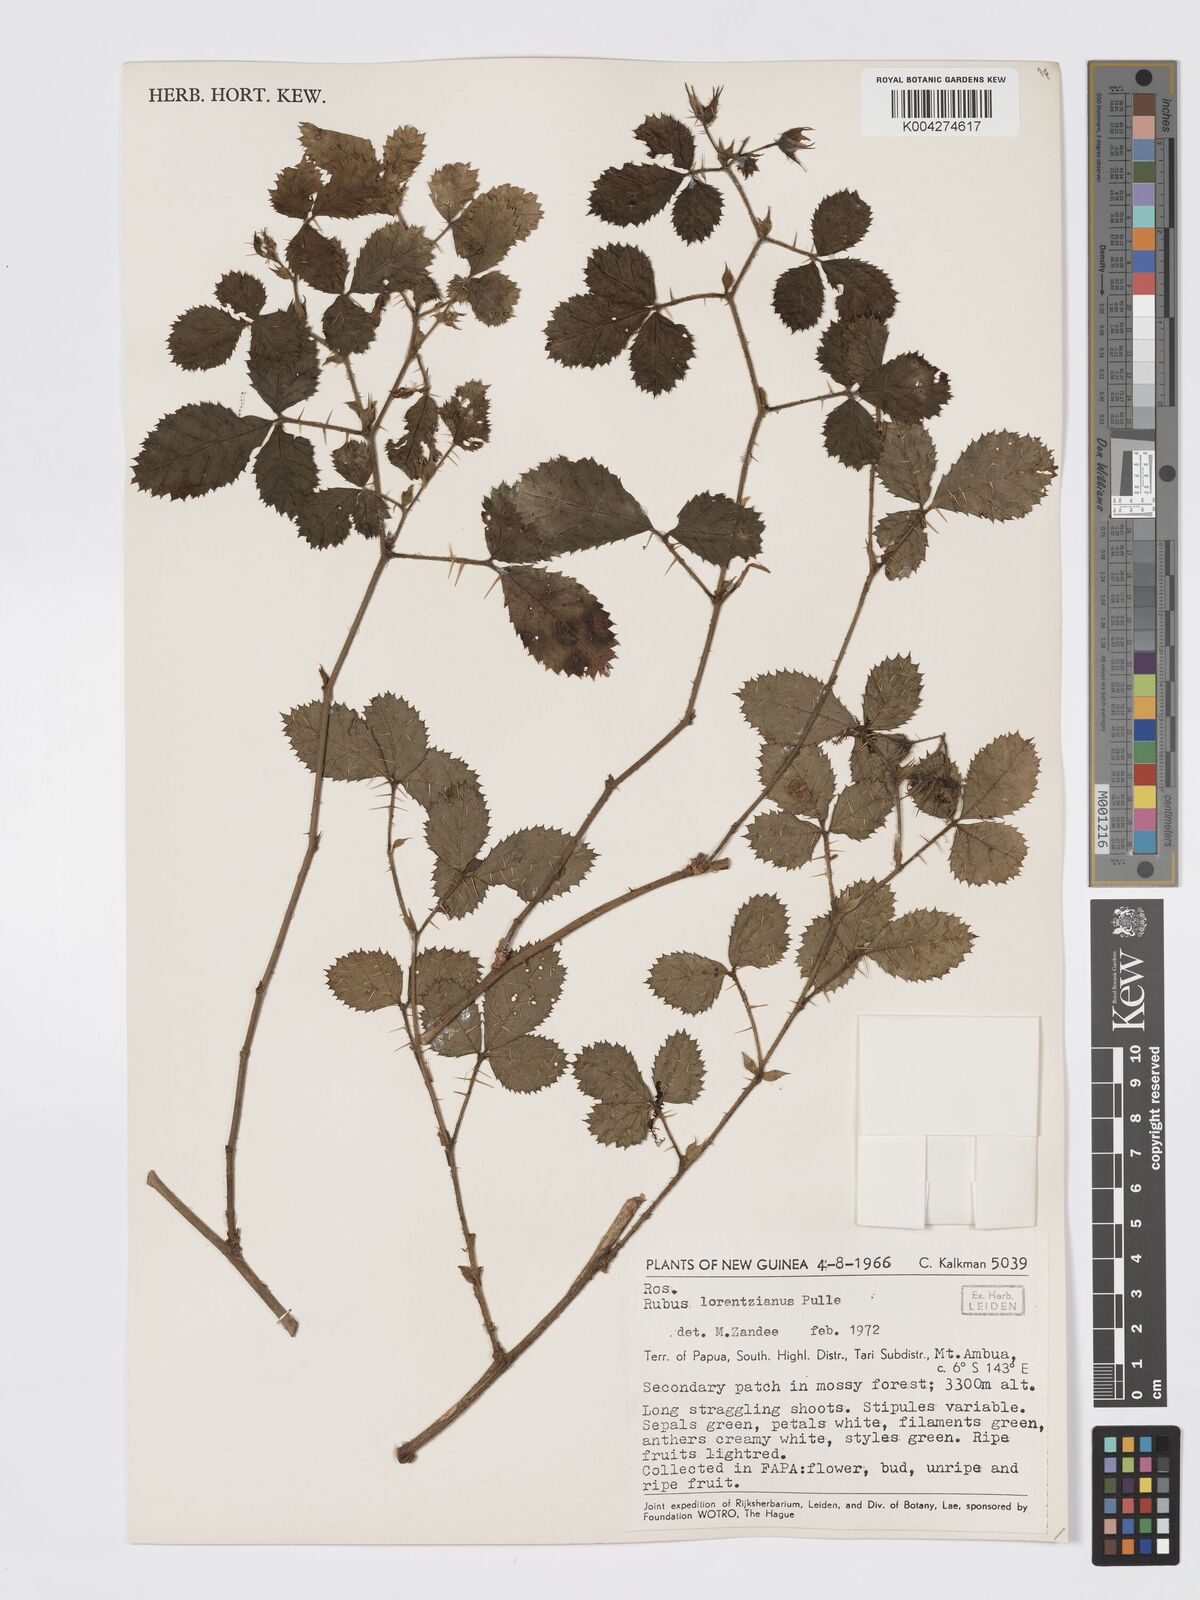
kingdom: Plantae
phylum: Tracheophyta
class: Magnoliopsida
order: Rosales
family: Rosaceae
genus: Rubus
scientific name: Rubus lorentzianus
